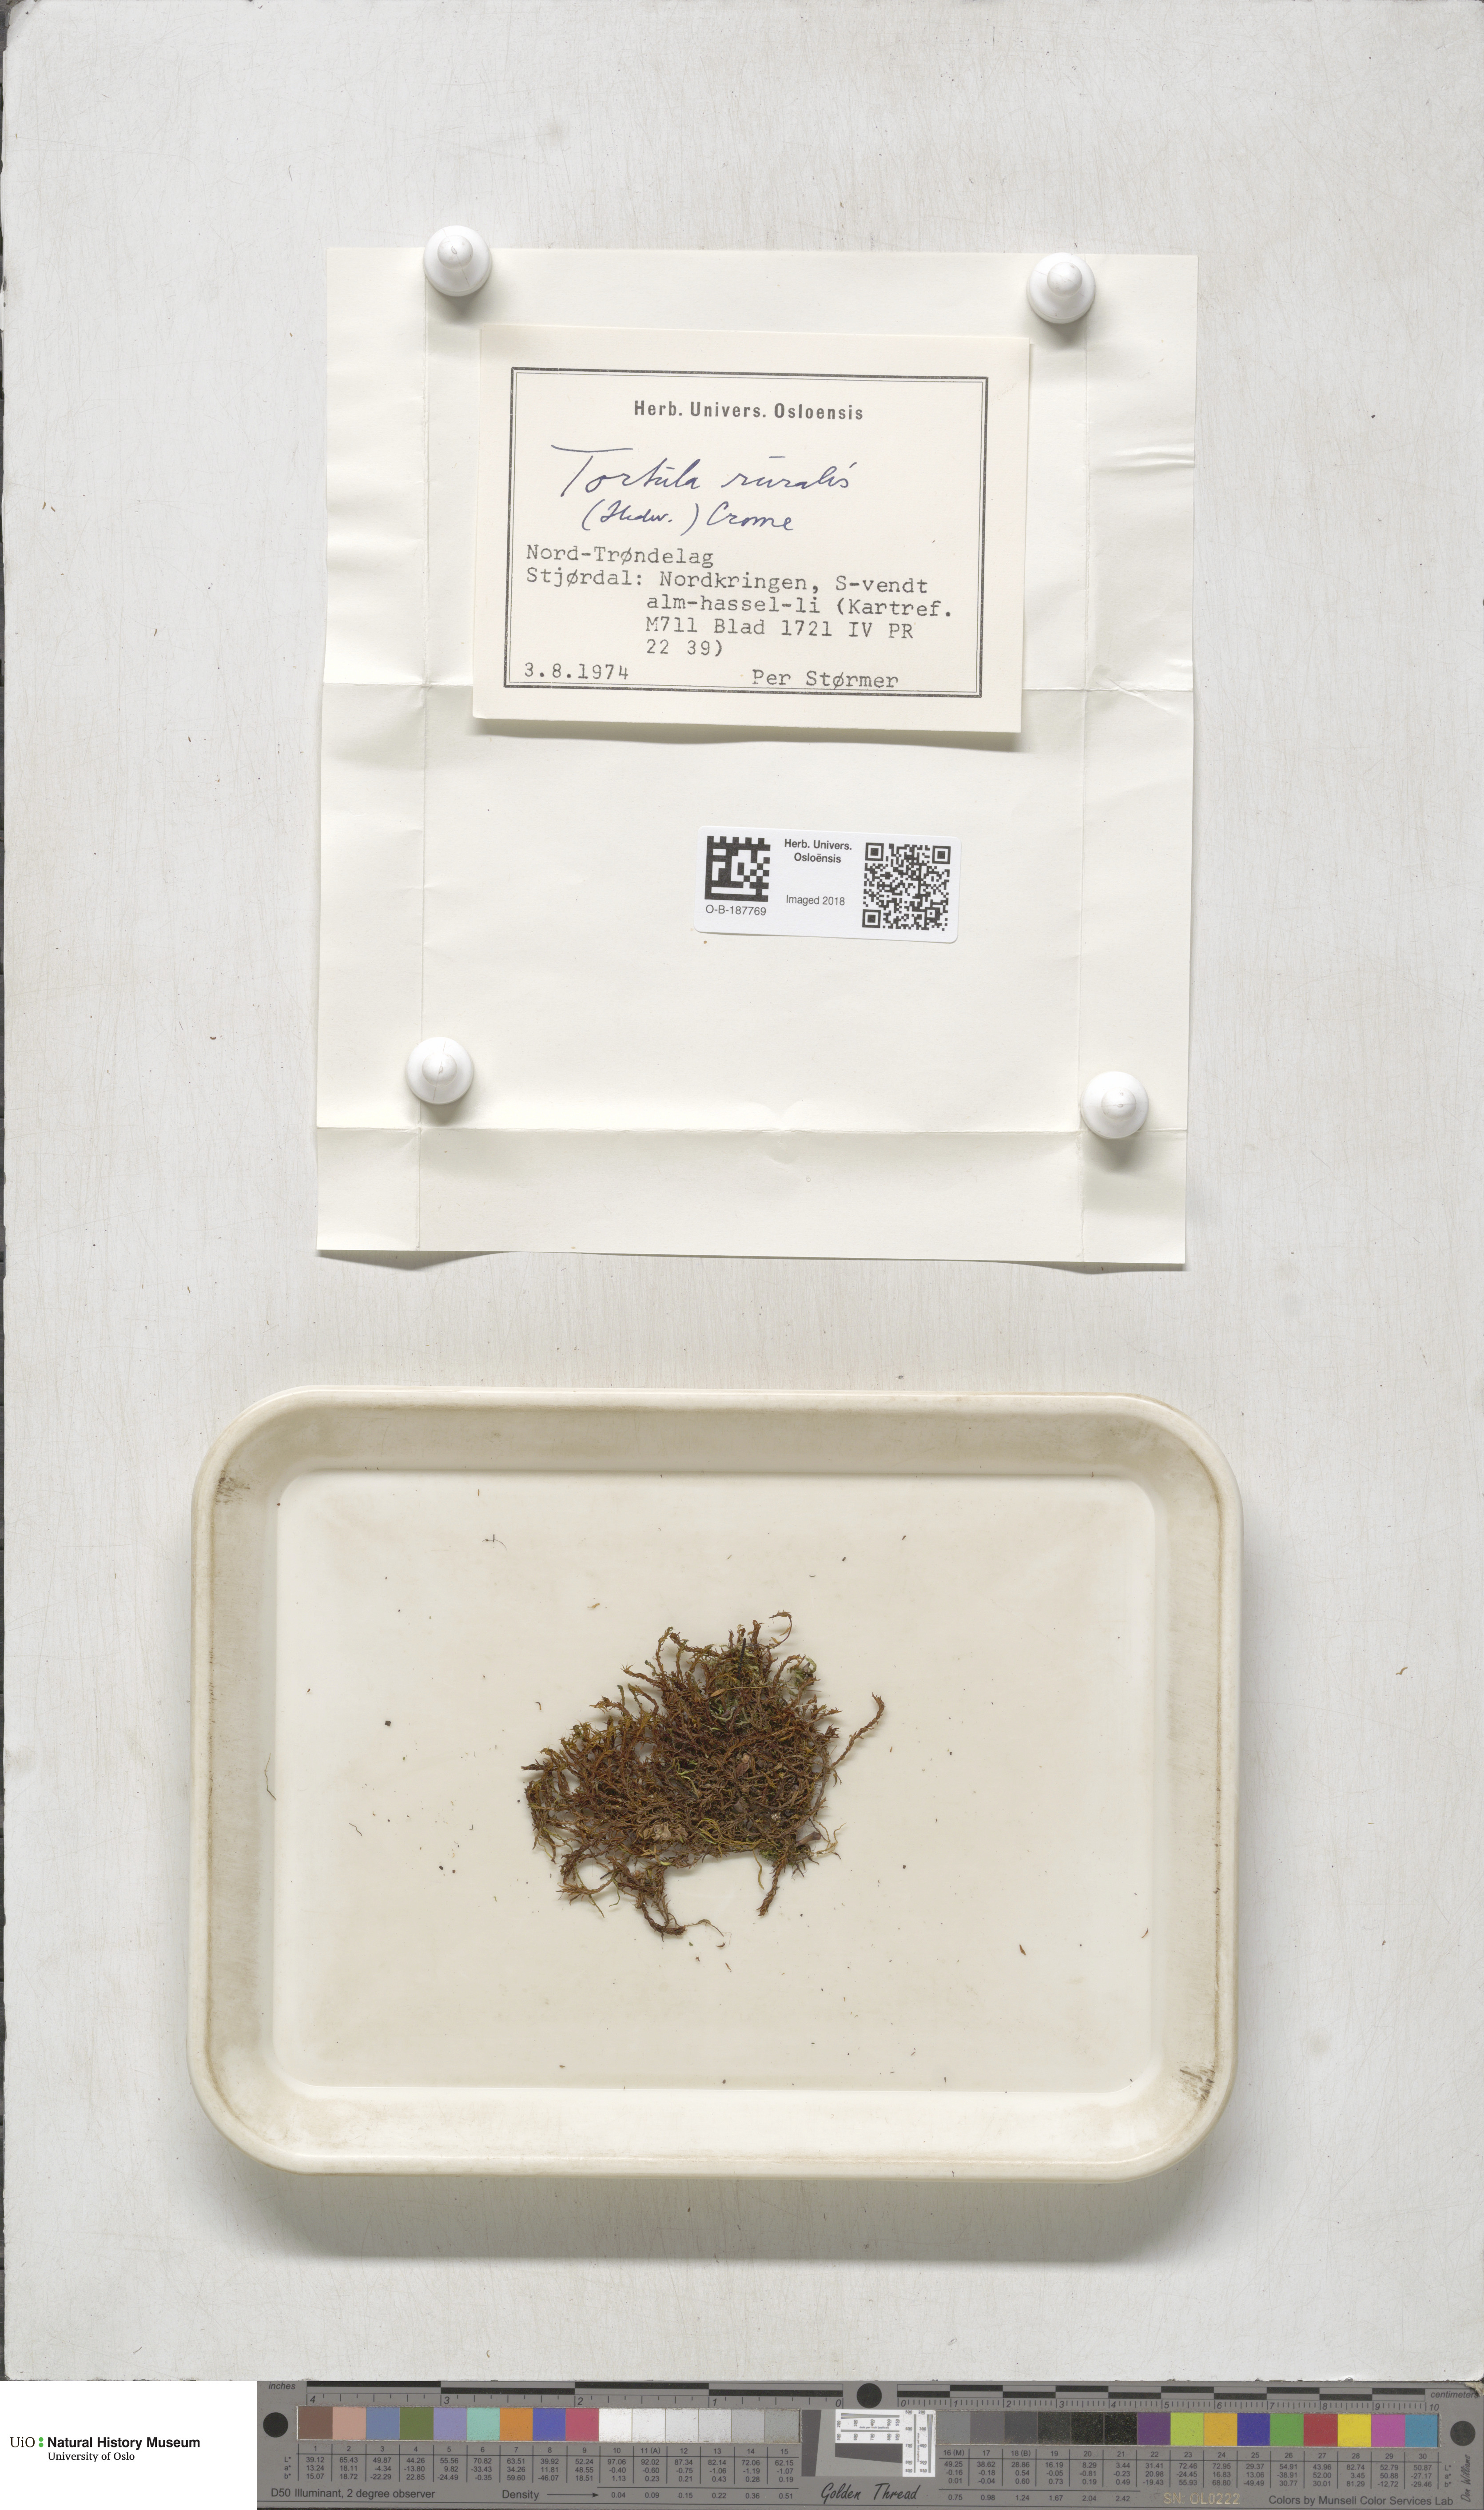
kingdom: Plantae
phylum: Bryophyta
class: Bryopsida
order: Pottiales
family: Pottiaceae
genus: Syntrichia
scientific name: Syntrichia ruralis
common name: Sidewalk screw moss
